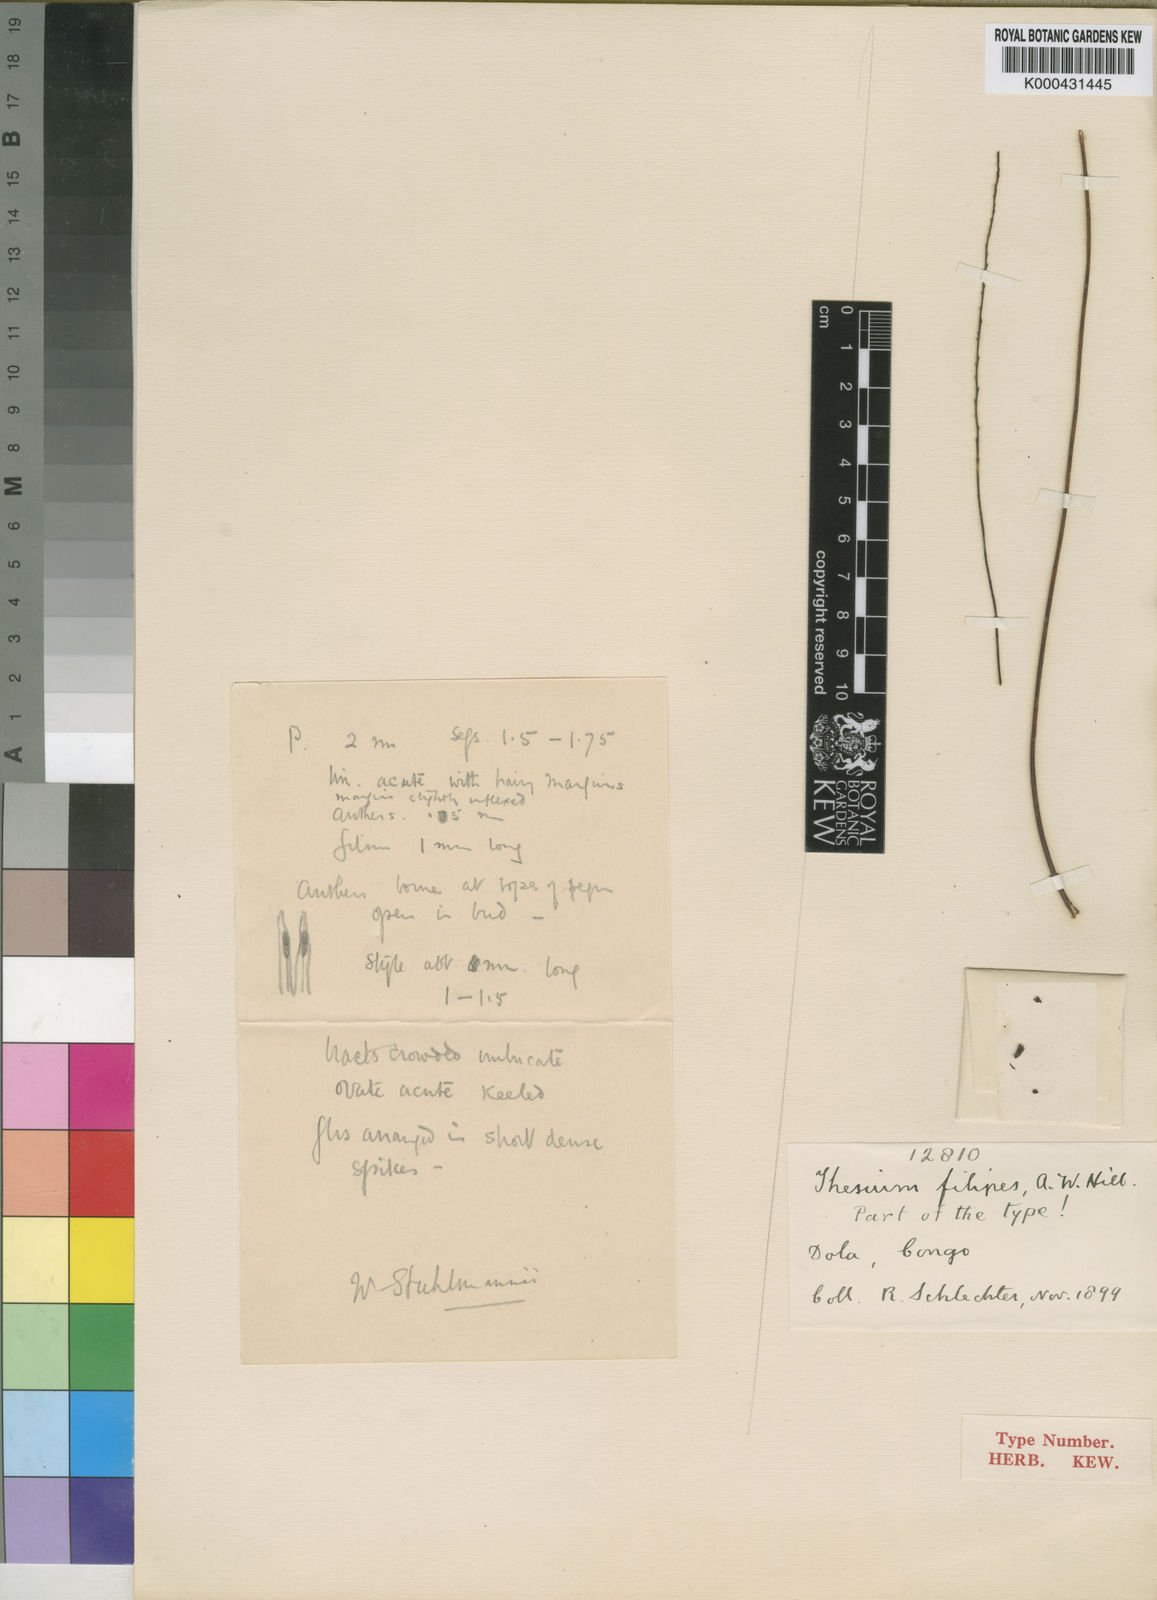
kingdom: Plantae
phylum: Tracheophyta
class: Magnoliopsida
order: Santalales
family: Thesiaceae
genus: Thesium
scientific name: Thesium filipes
